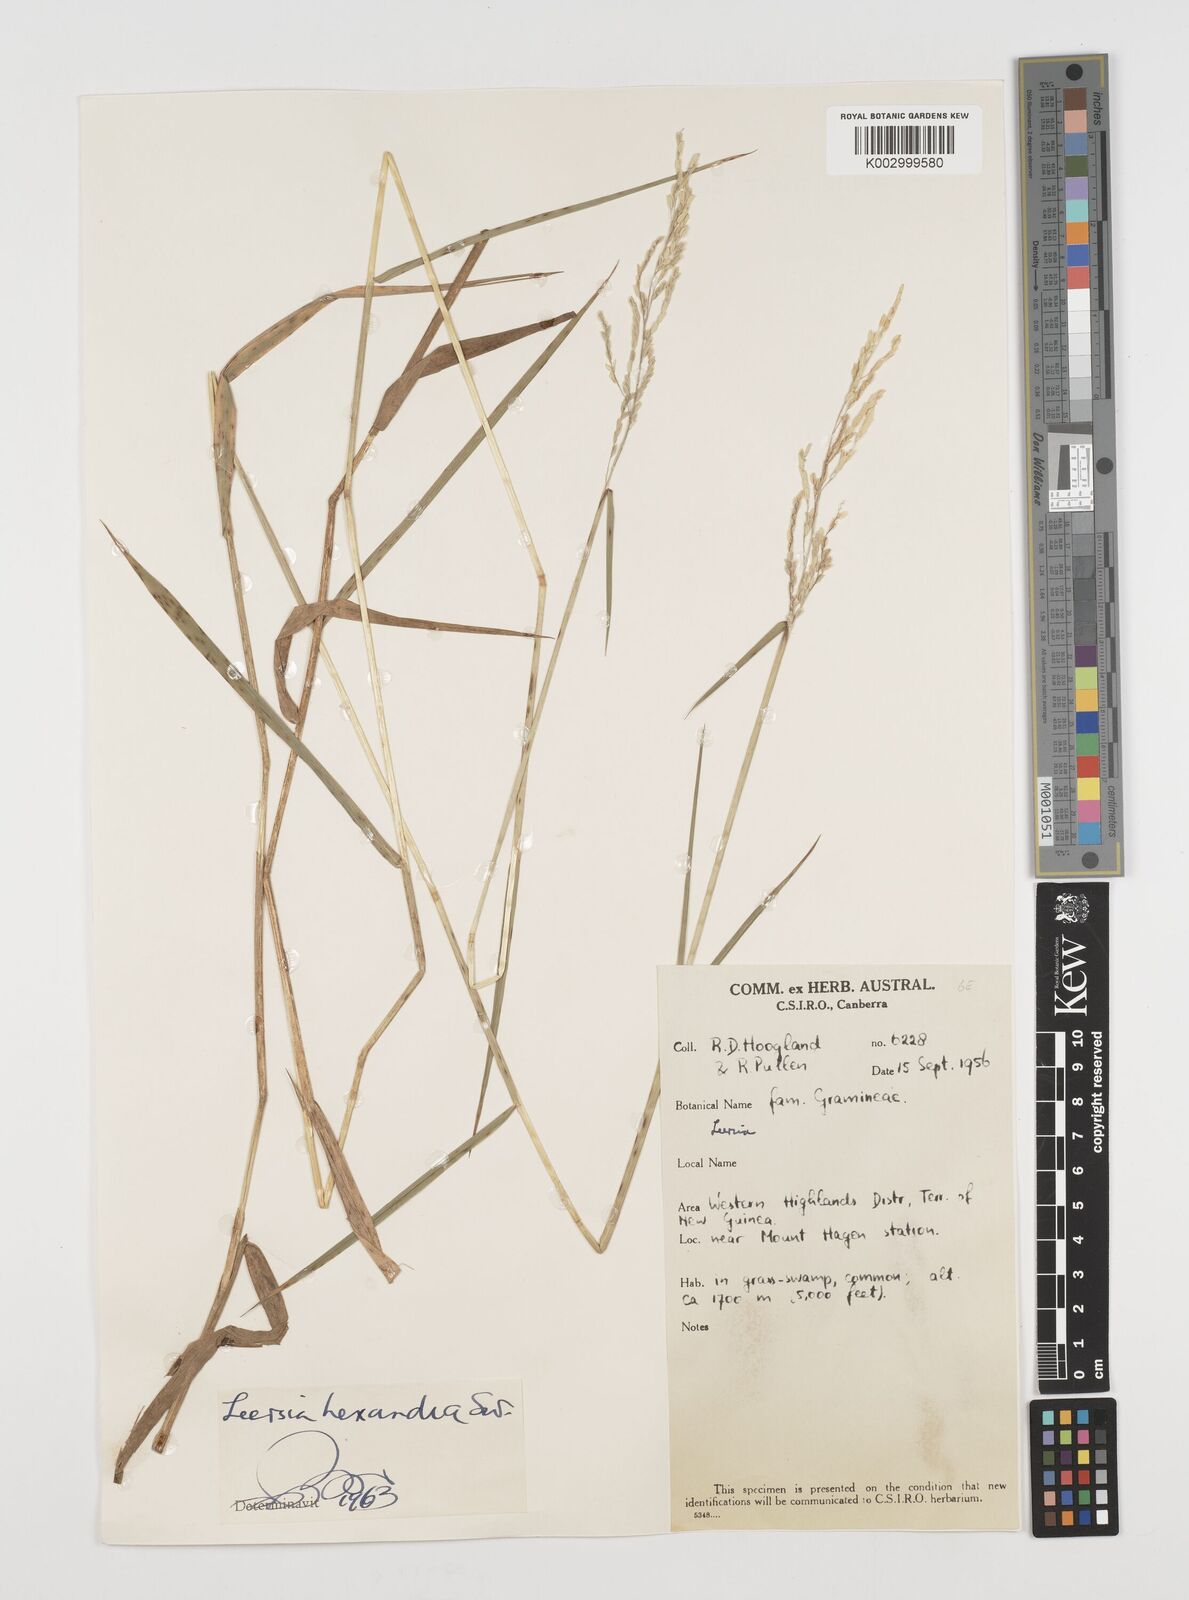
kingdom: Plantae
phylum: Tracheophyta
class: Liliopsida
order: Poales
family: Poaceae
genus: Leersia
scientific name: Leersia hexandra
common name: Southern cut grass
